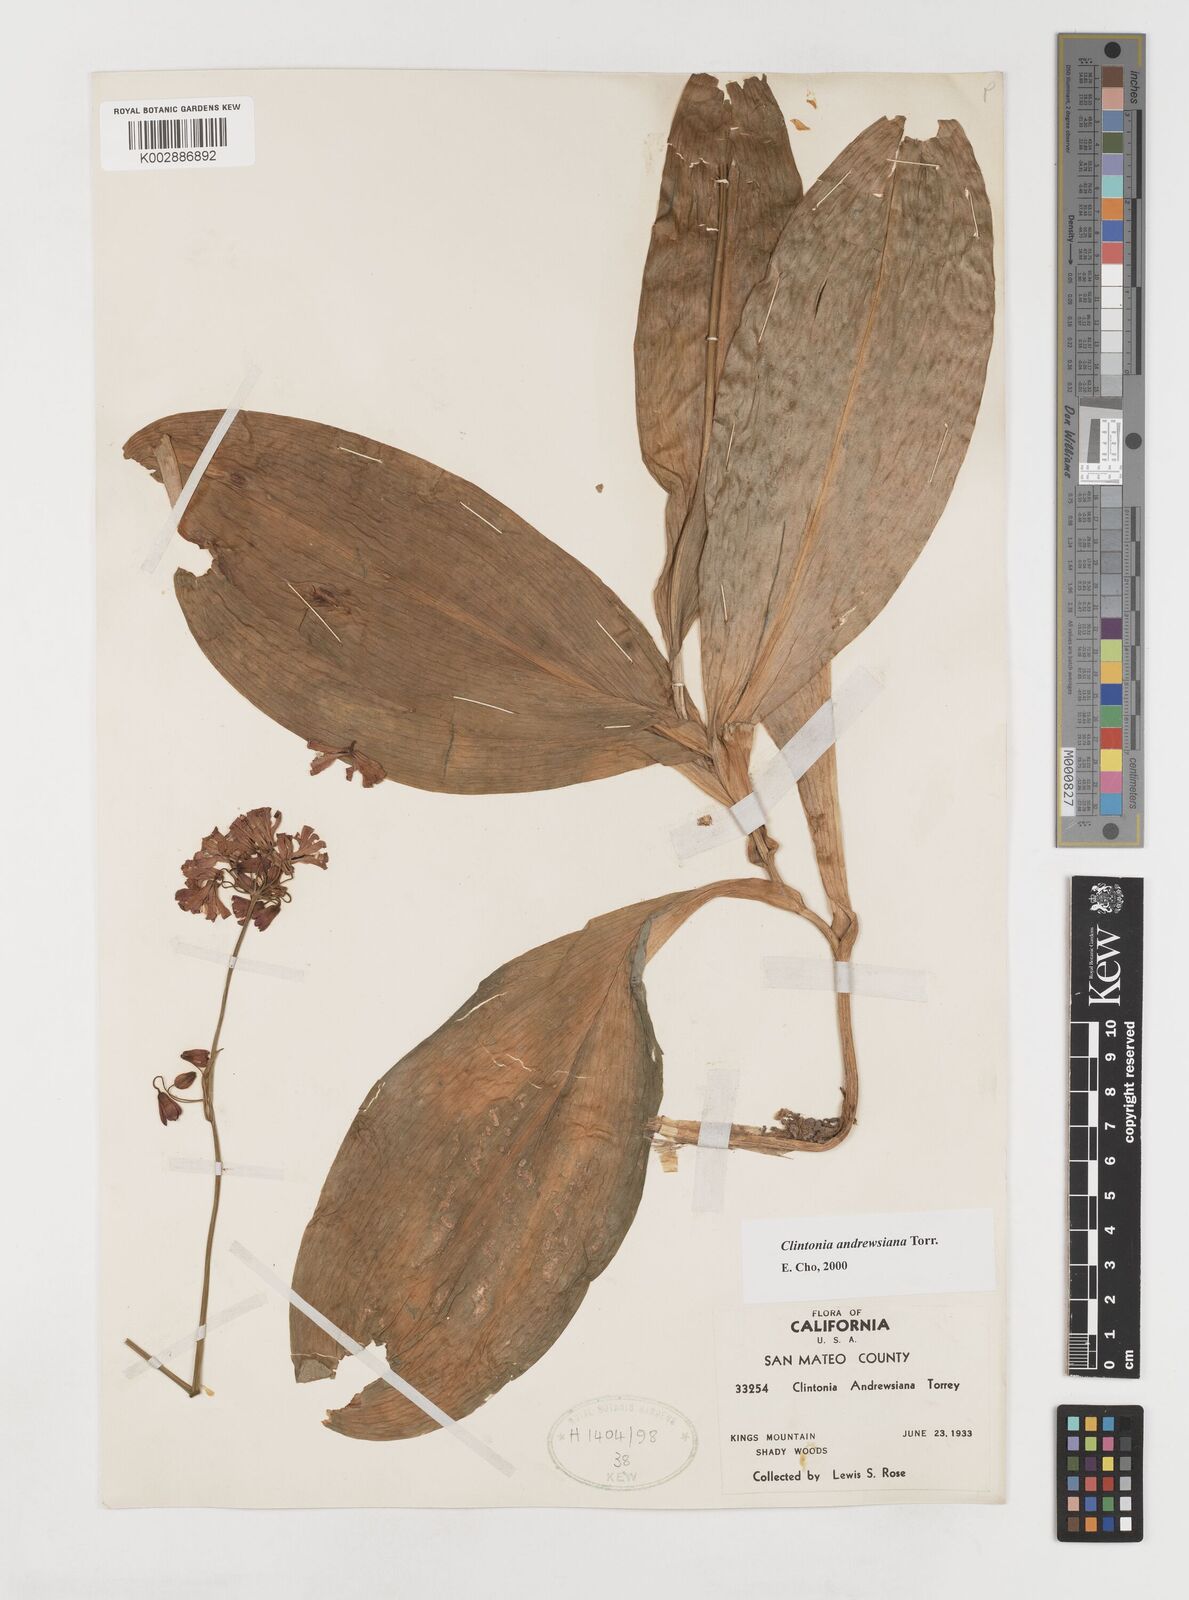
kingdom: Plantae
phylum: Tracheophyta
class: Liliopsida
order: Liliales
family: Liliaceae
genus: Clintonia
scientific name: Clintonia andrewsiana
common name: Red clintonia
